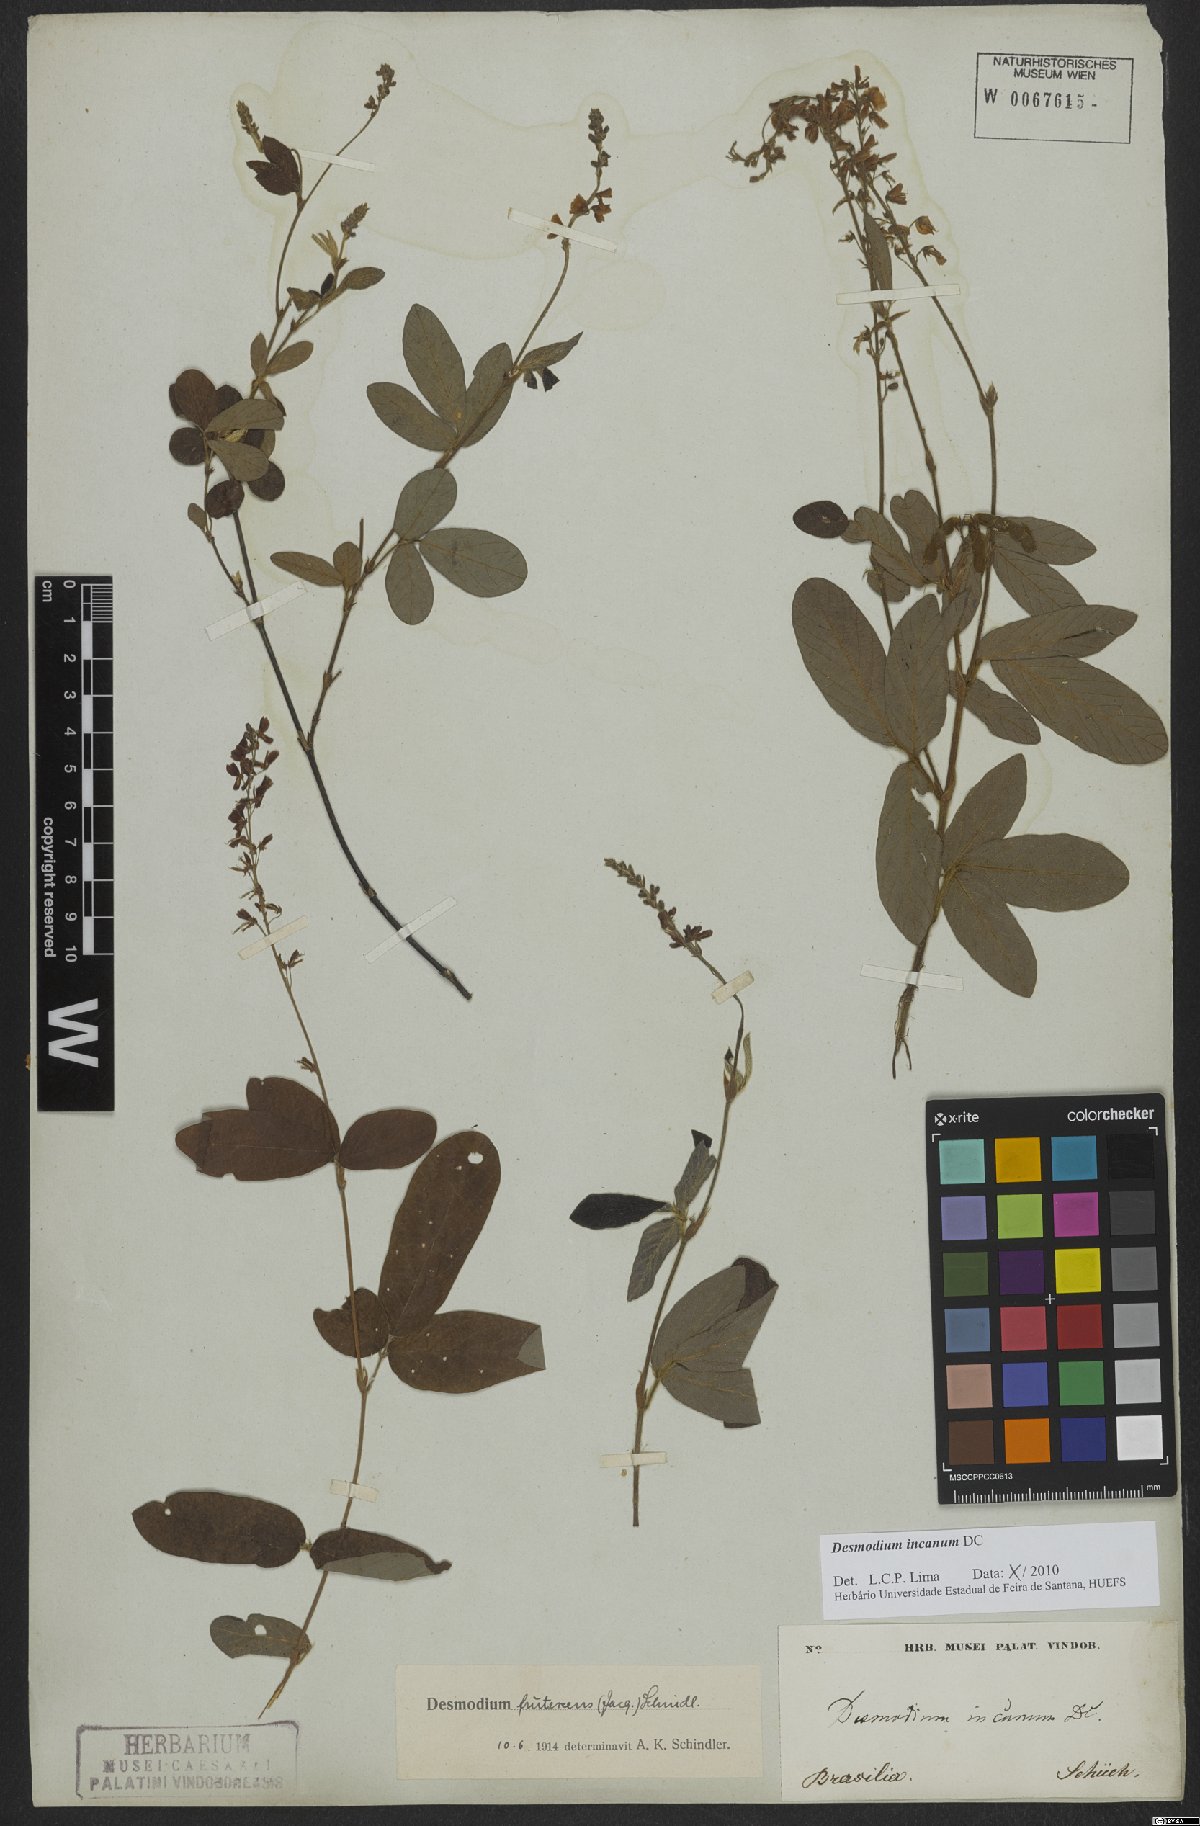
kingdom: Plantae
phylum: Tracheophyta
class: Magnoliopsida
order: Fabales
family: Fabaceae
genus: Desmodium
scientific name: Desmodium incanum
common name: Tickclover
